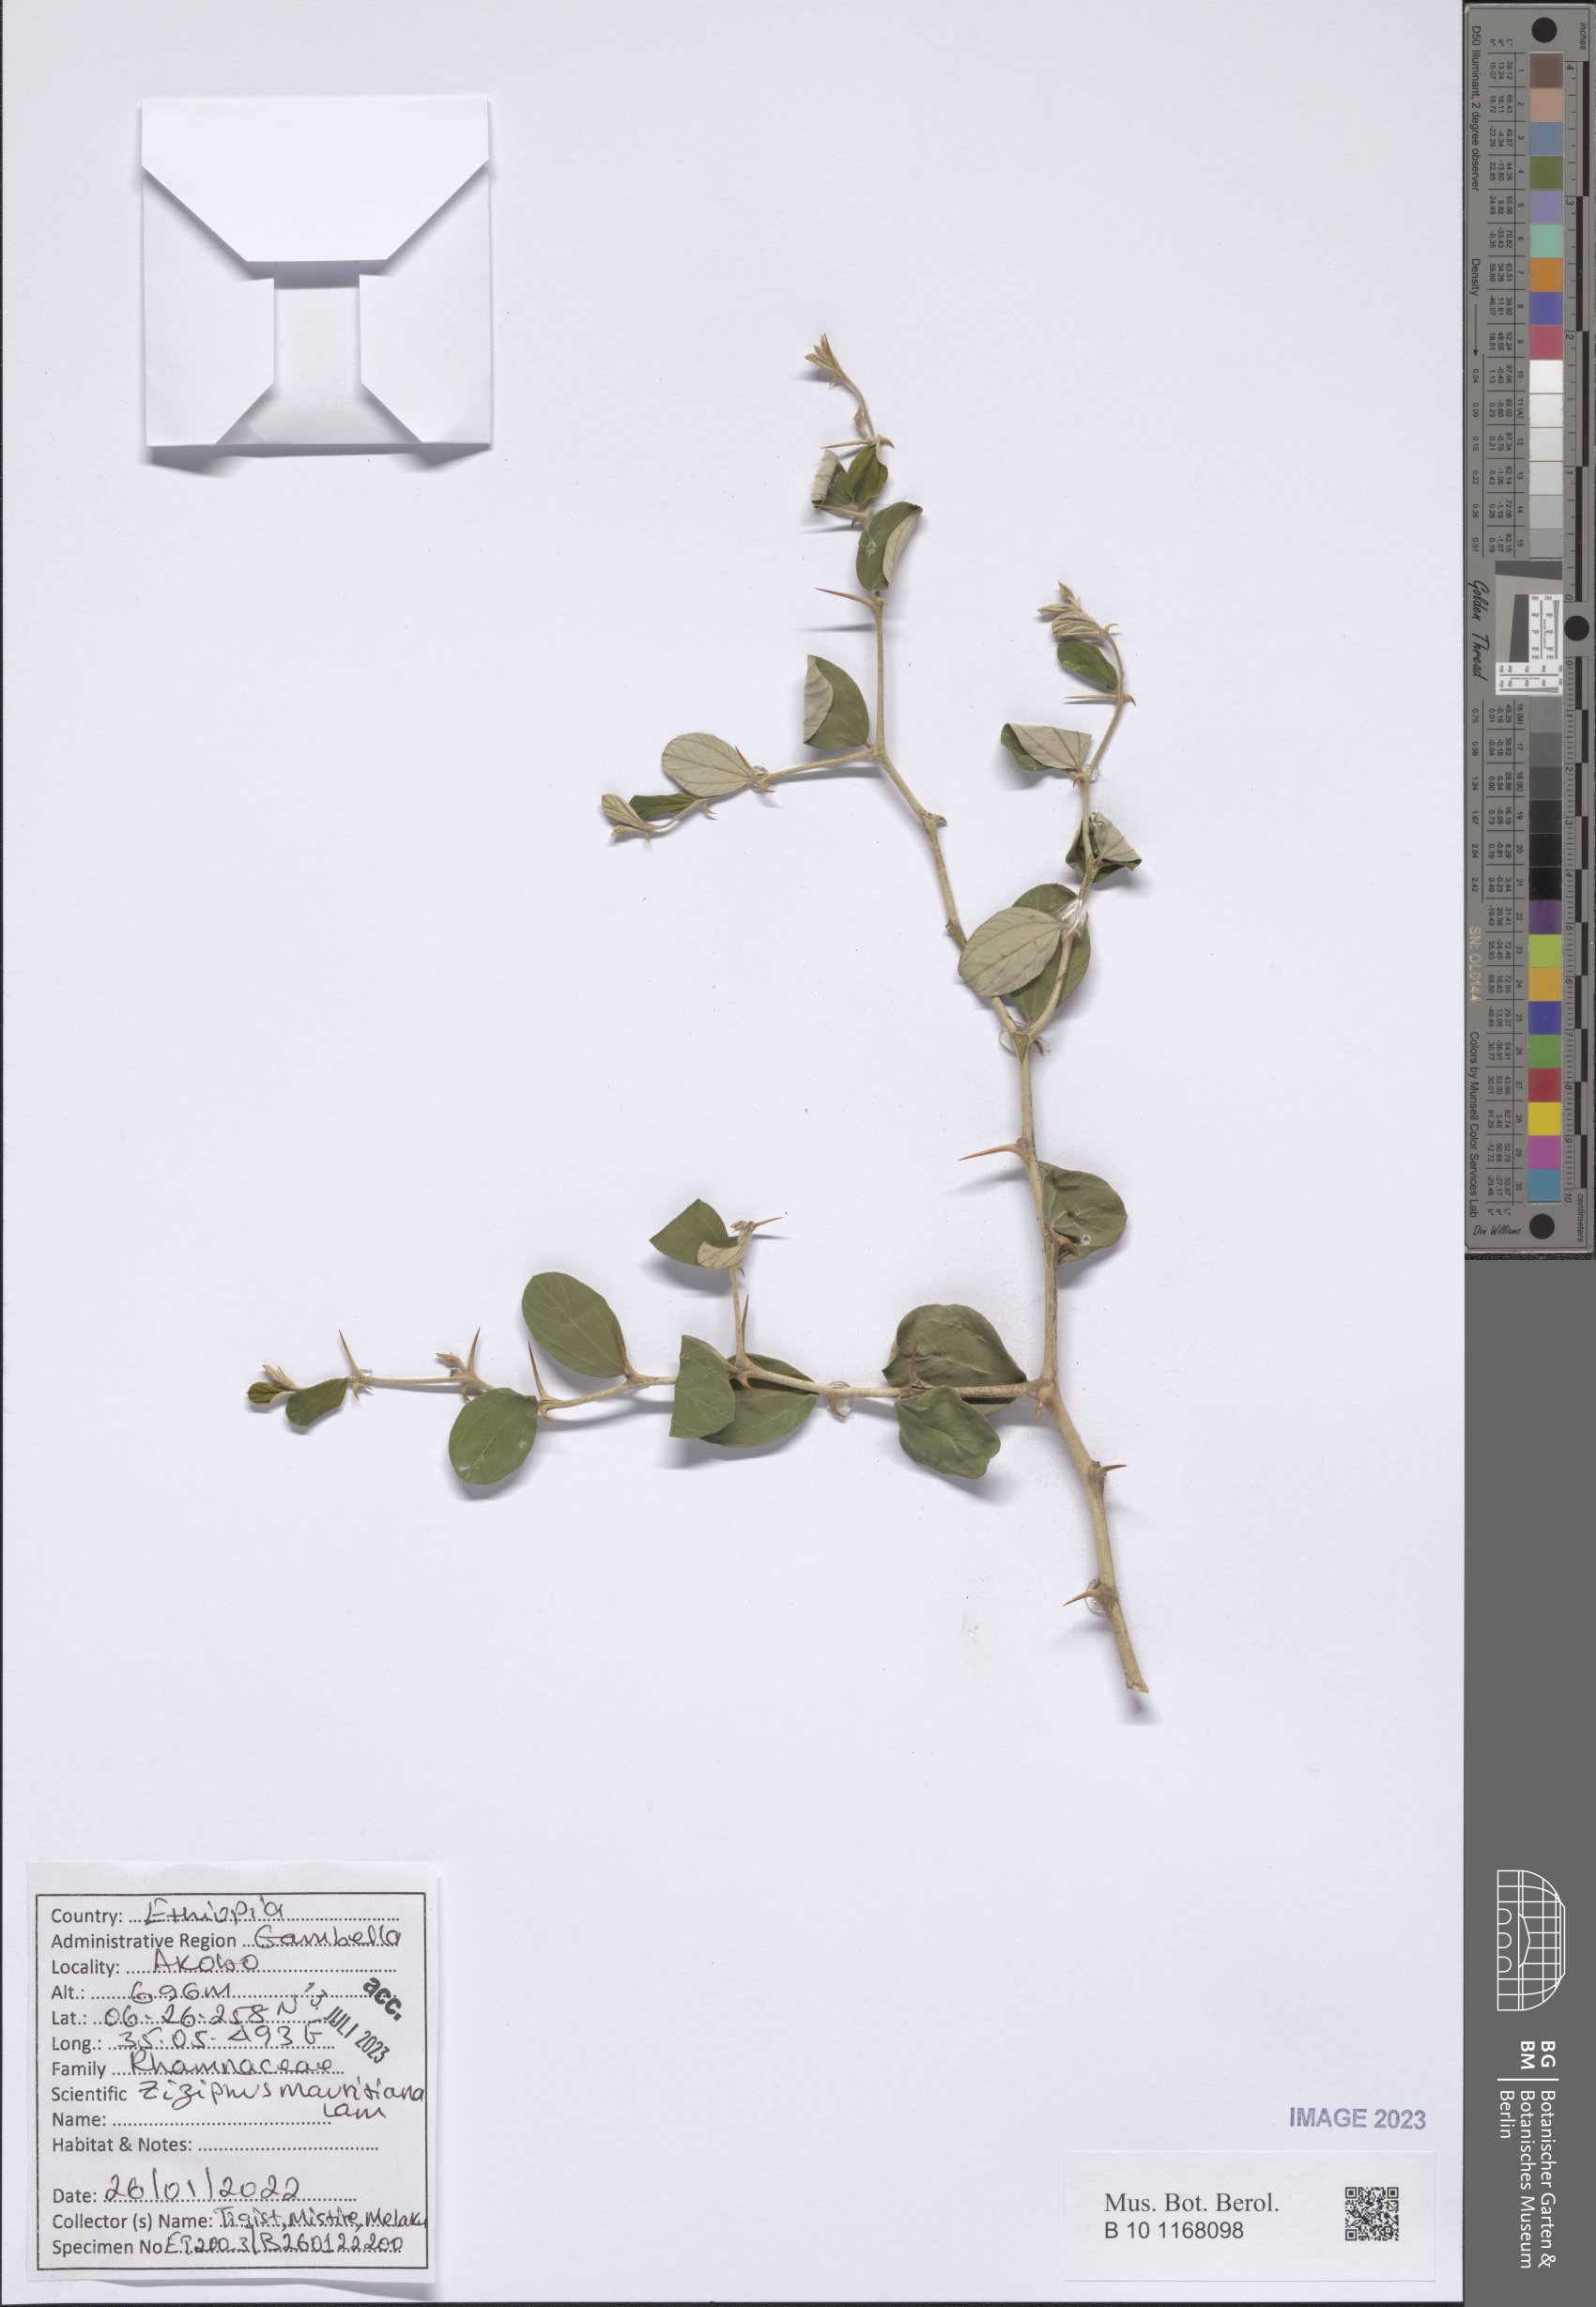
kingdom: Plantae
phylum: Tracheophyta
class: Magnoliopsida
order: Rosales
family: Rhamnaceae
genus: Ziziphus
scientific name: Ziziphus mauritiana
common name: Indian jujube
